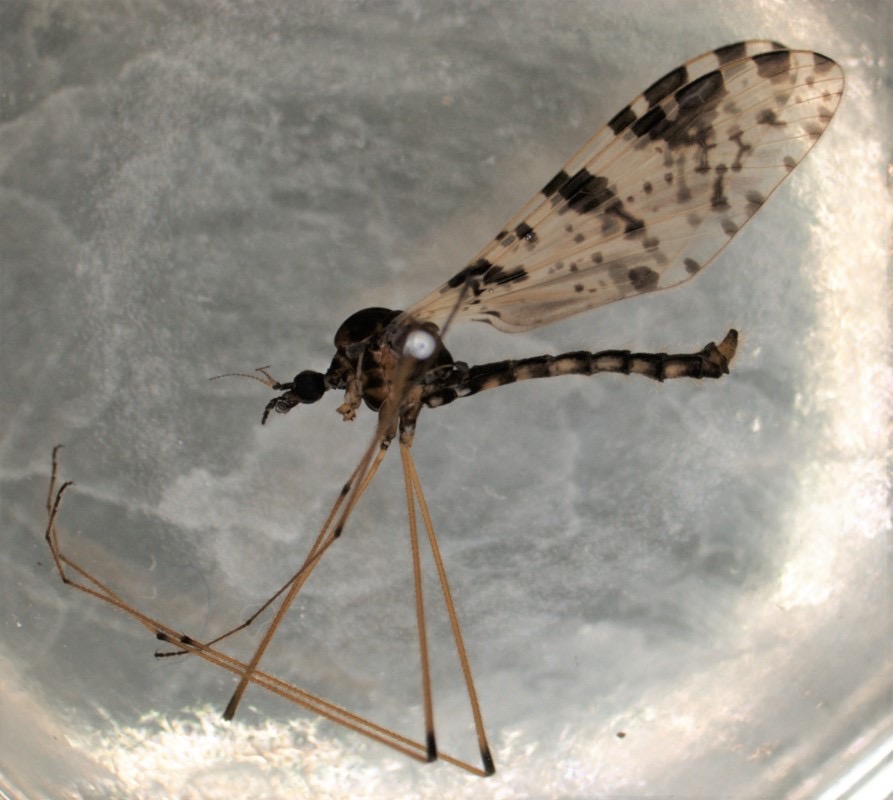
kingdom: Animalia
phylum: Arthropoda
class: Insecta
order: Diptera
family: Limoniidae
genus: Eloeophila
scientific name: Eloeophila submarmorata
